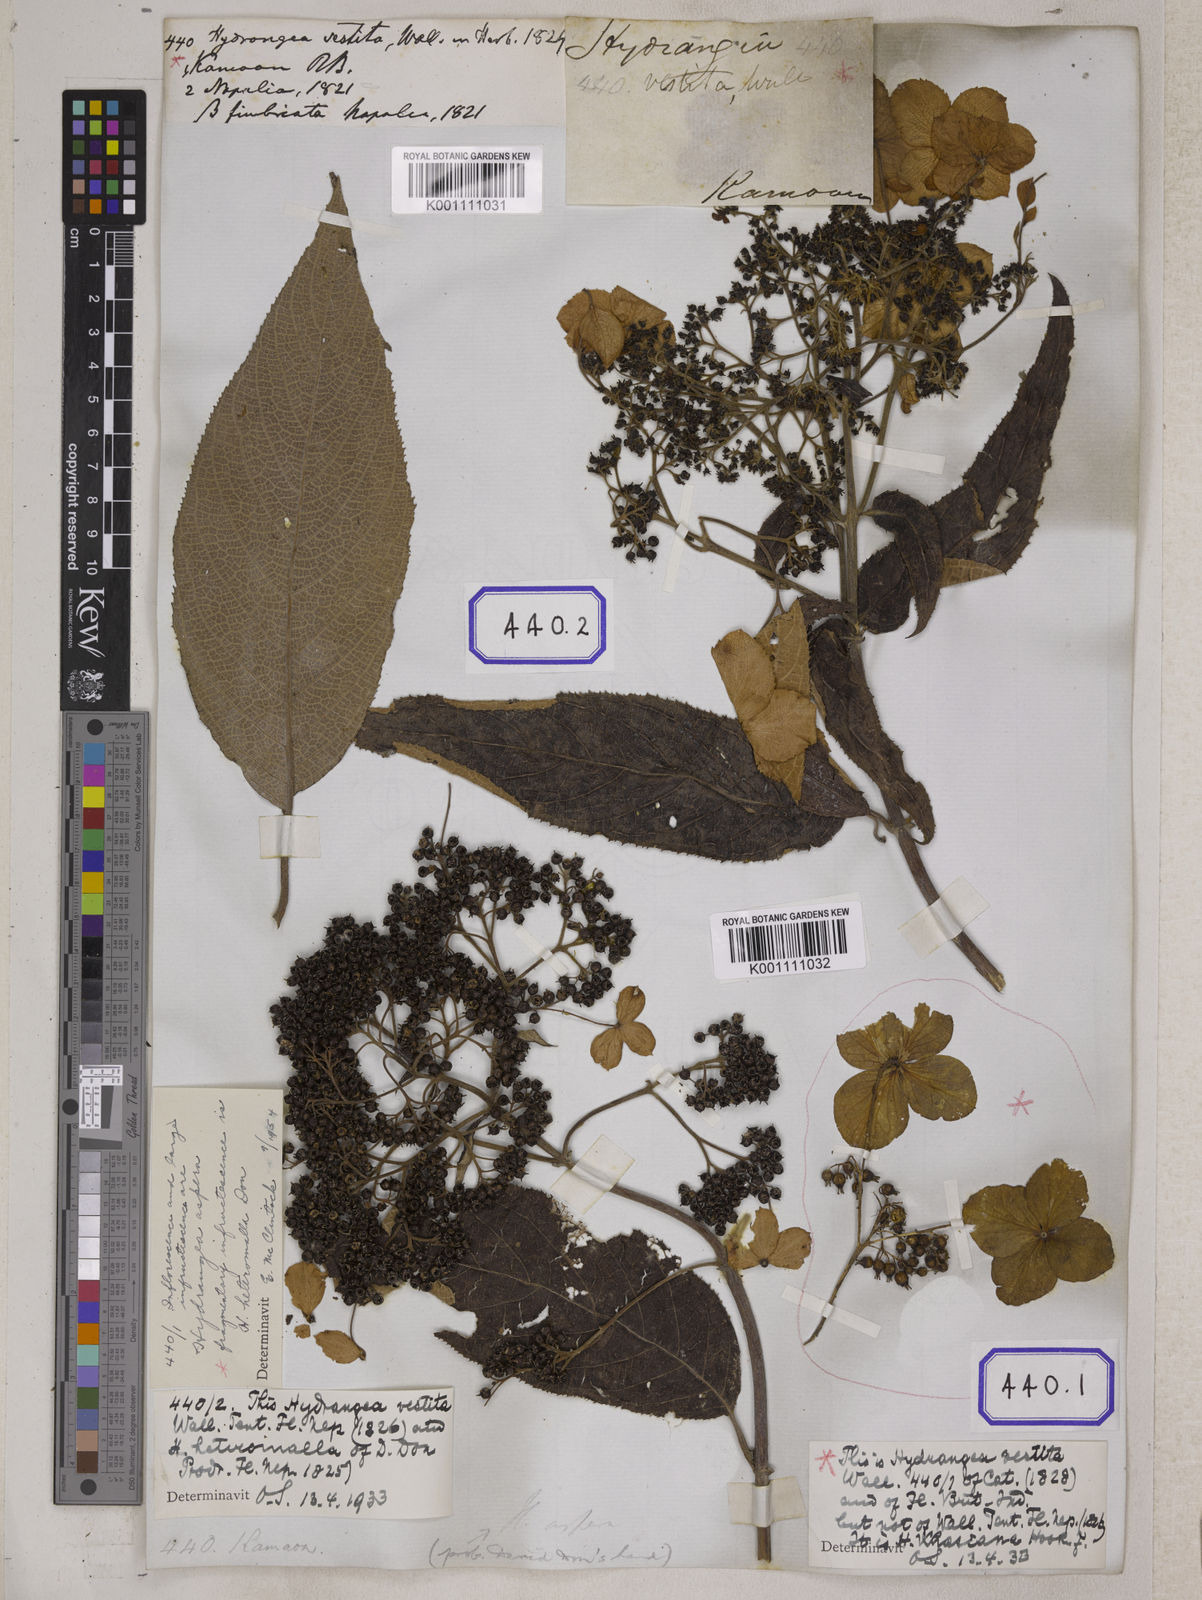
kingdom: Plantae
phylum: Tracheophyta
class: Magnoliopsida
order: Cornales
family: Hydrangeaceae
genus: Hydrangea
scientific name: Hydrangea heteromalla
